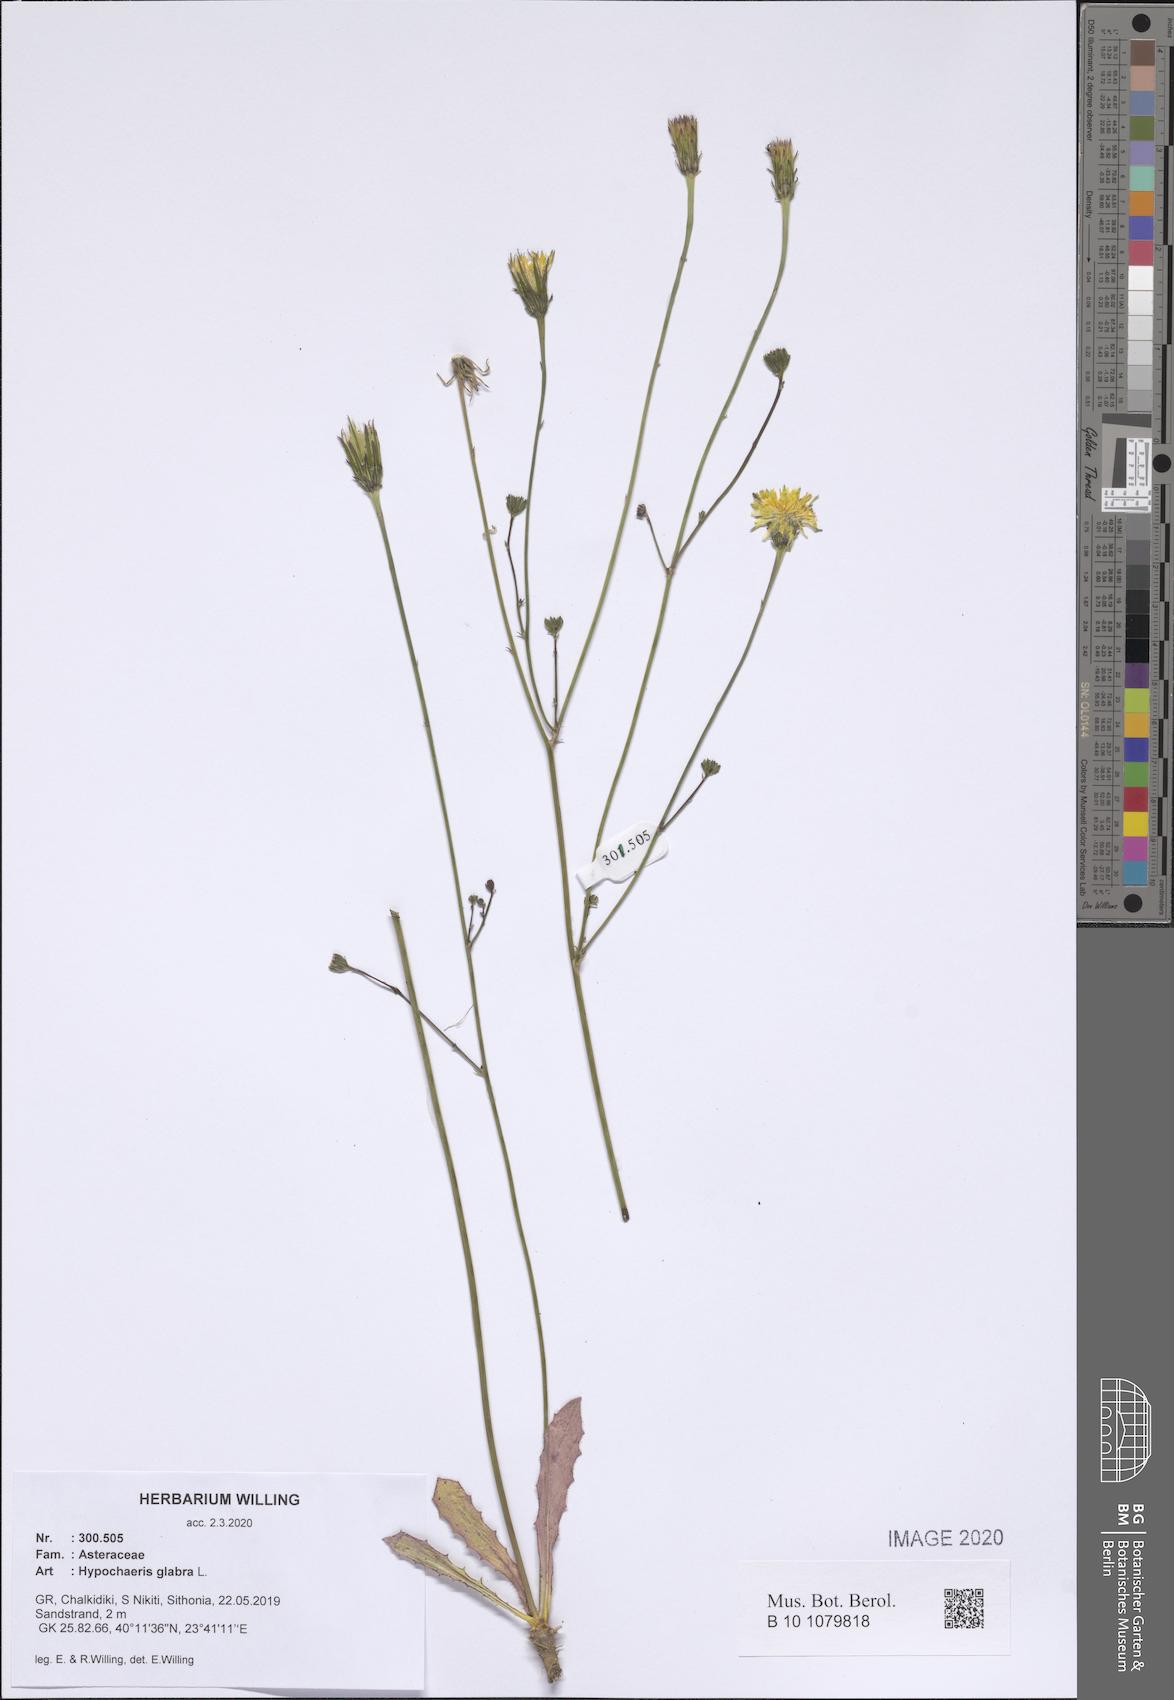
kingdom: Plantae
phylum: Tracheophyta
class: Magnoliopsida
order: Asterales
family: Asteraceae
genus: Hypochaeris
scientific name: Hypochaeris glabra
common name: Smooth catsear
